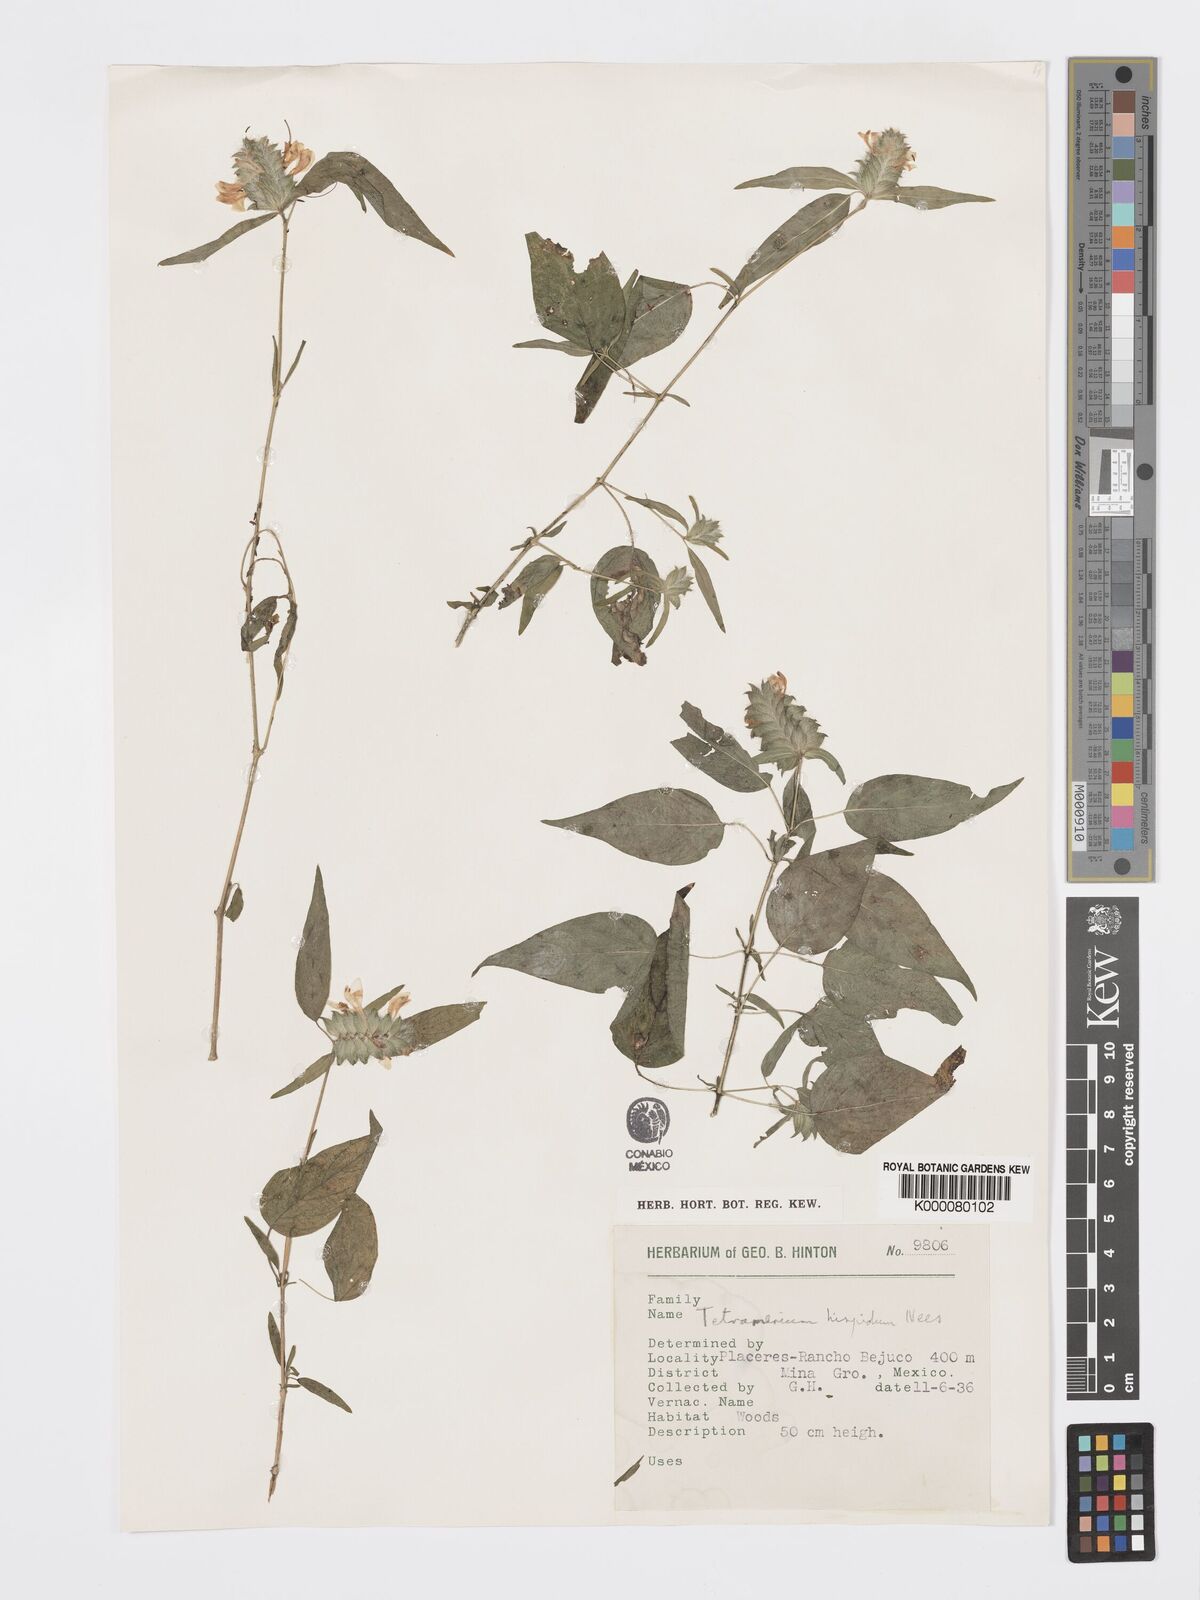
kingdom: Plantae
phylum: Tracheophyta
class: Magnoliopsida
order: Lamiales
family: Acanthaceae
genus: Tetramerium
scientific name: Tetramerium nervosum
